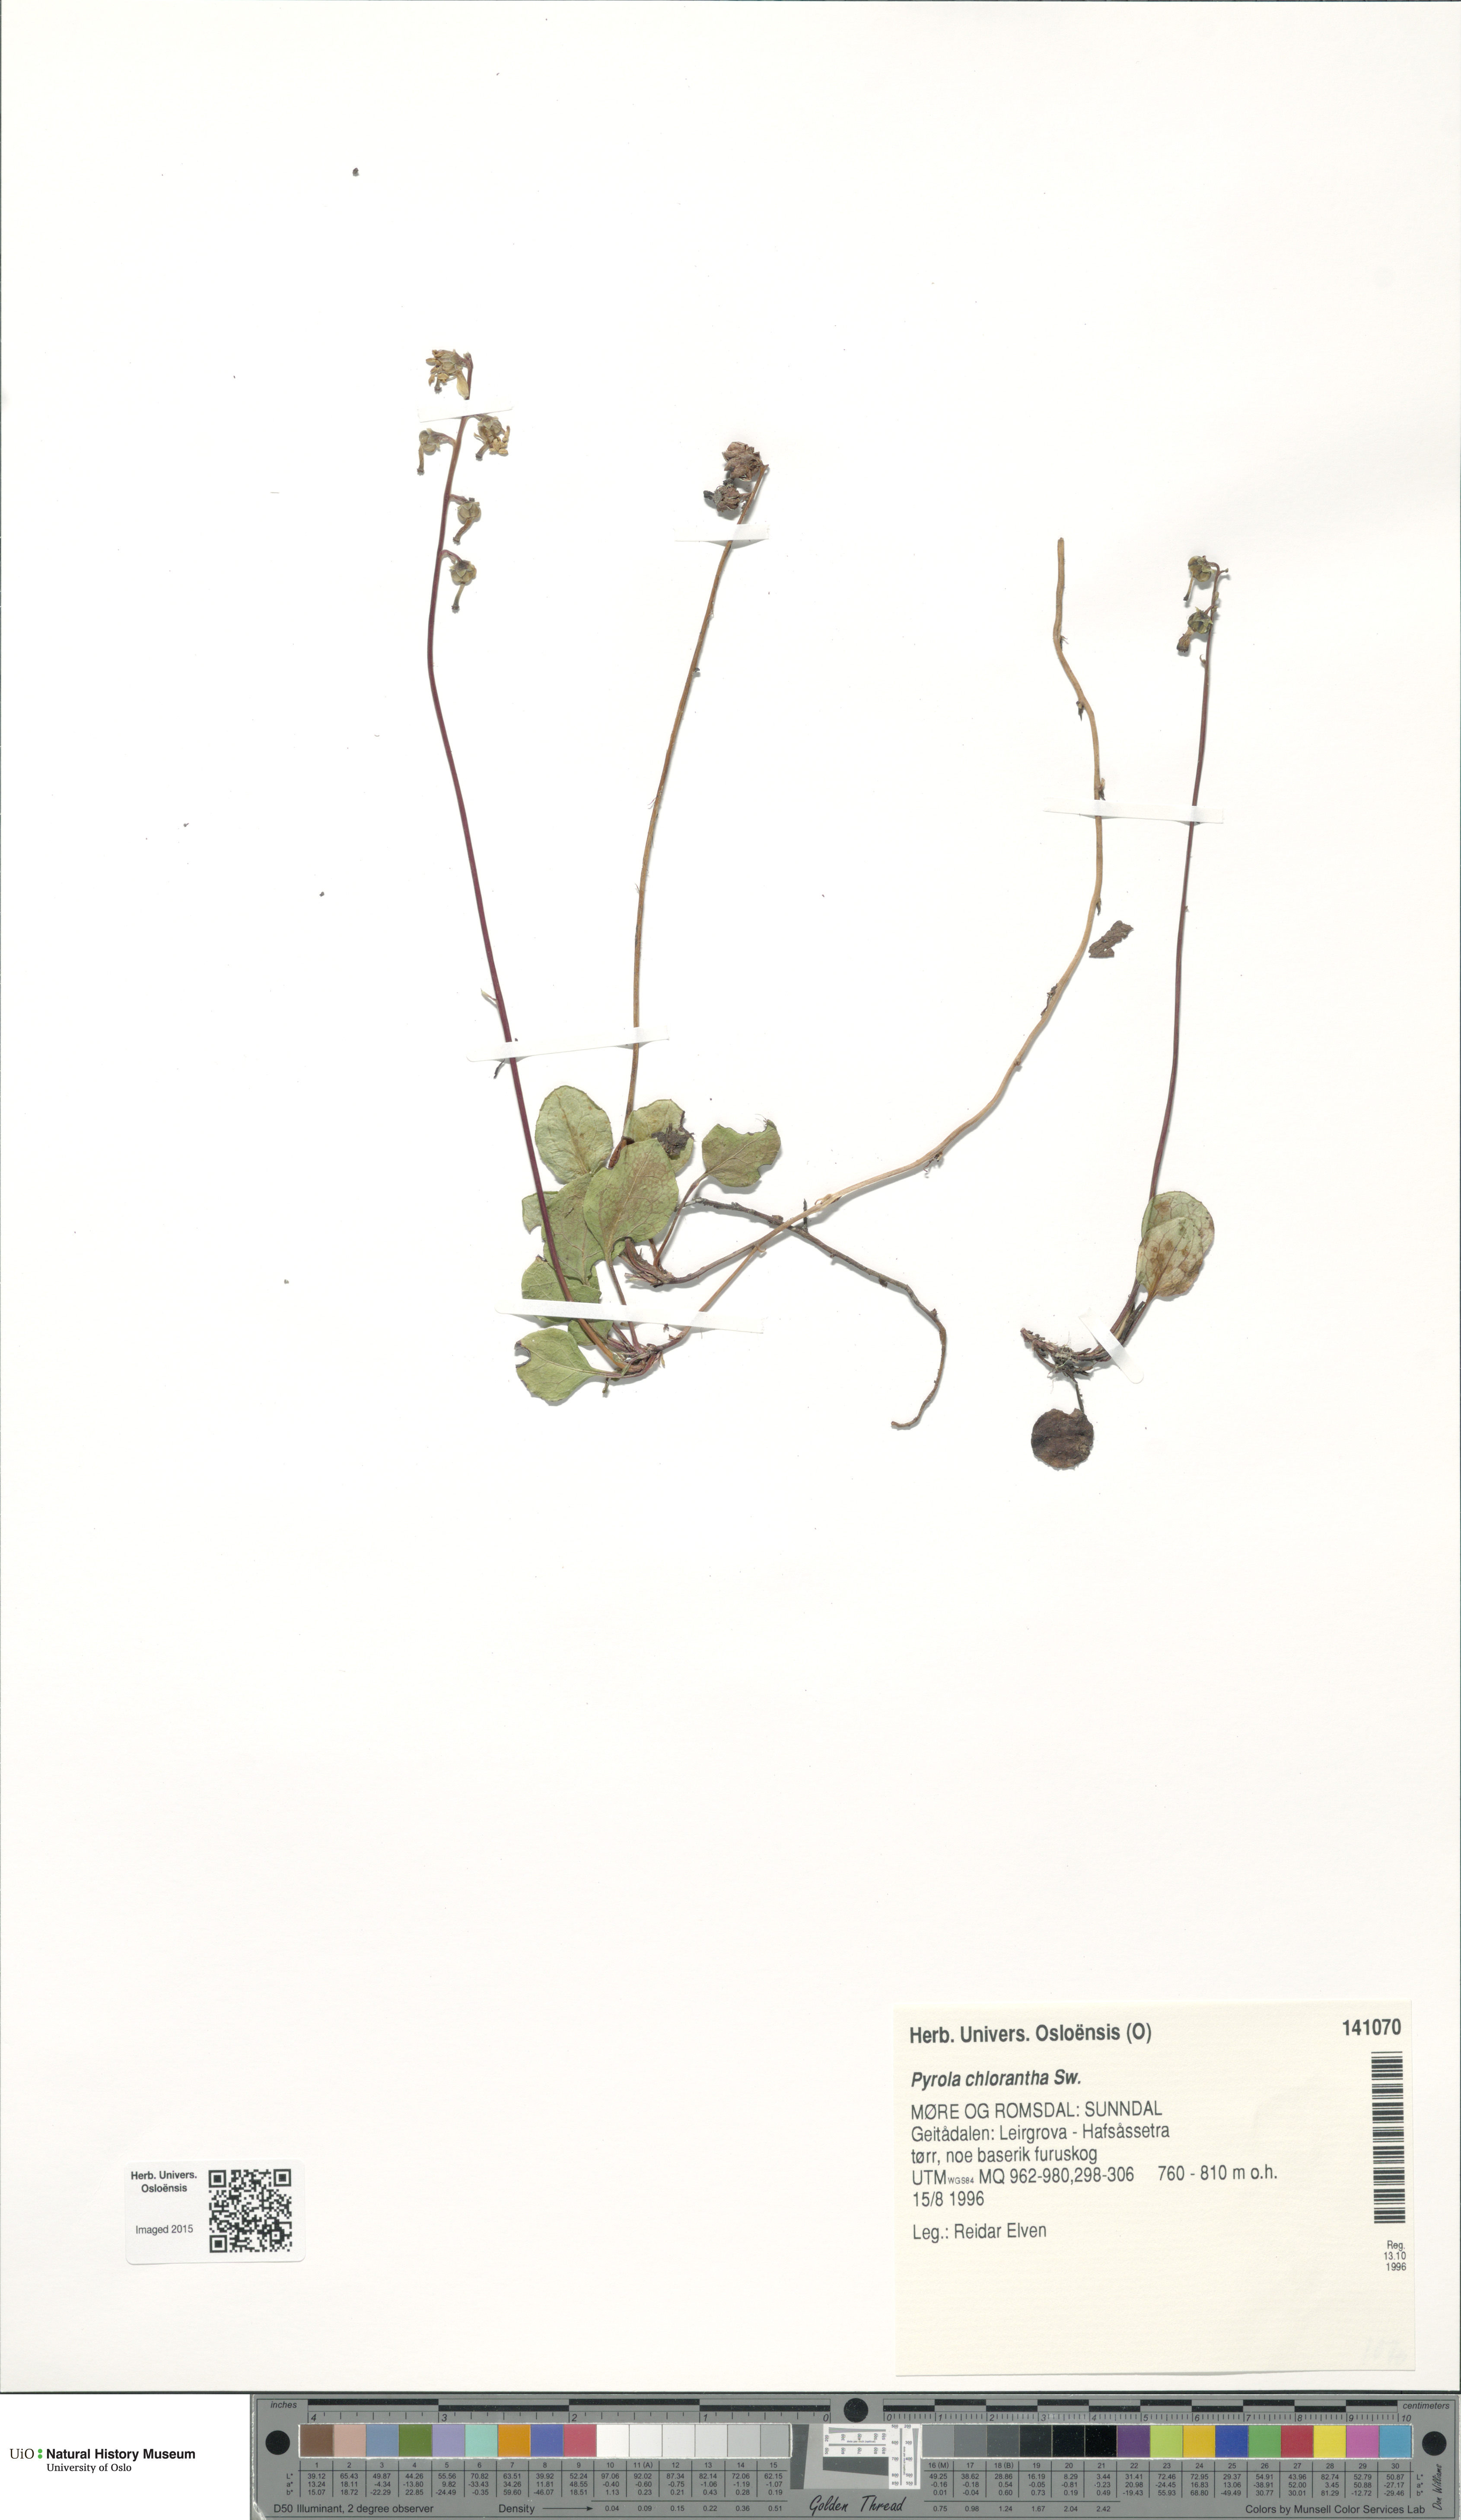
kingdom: Plantae
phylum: Tracheophyta
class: Magnoliopsida
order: Ericales
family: Ericaceae
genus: Pyrola
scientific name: Pyrola chlorantha
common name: Green wintergreen
